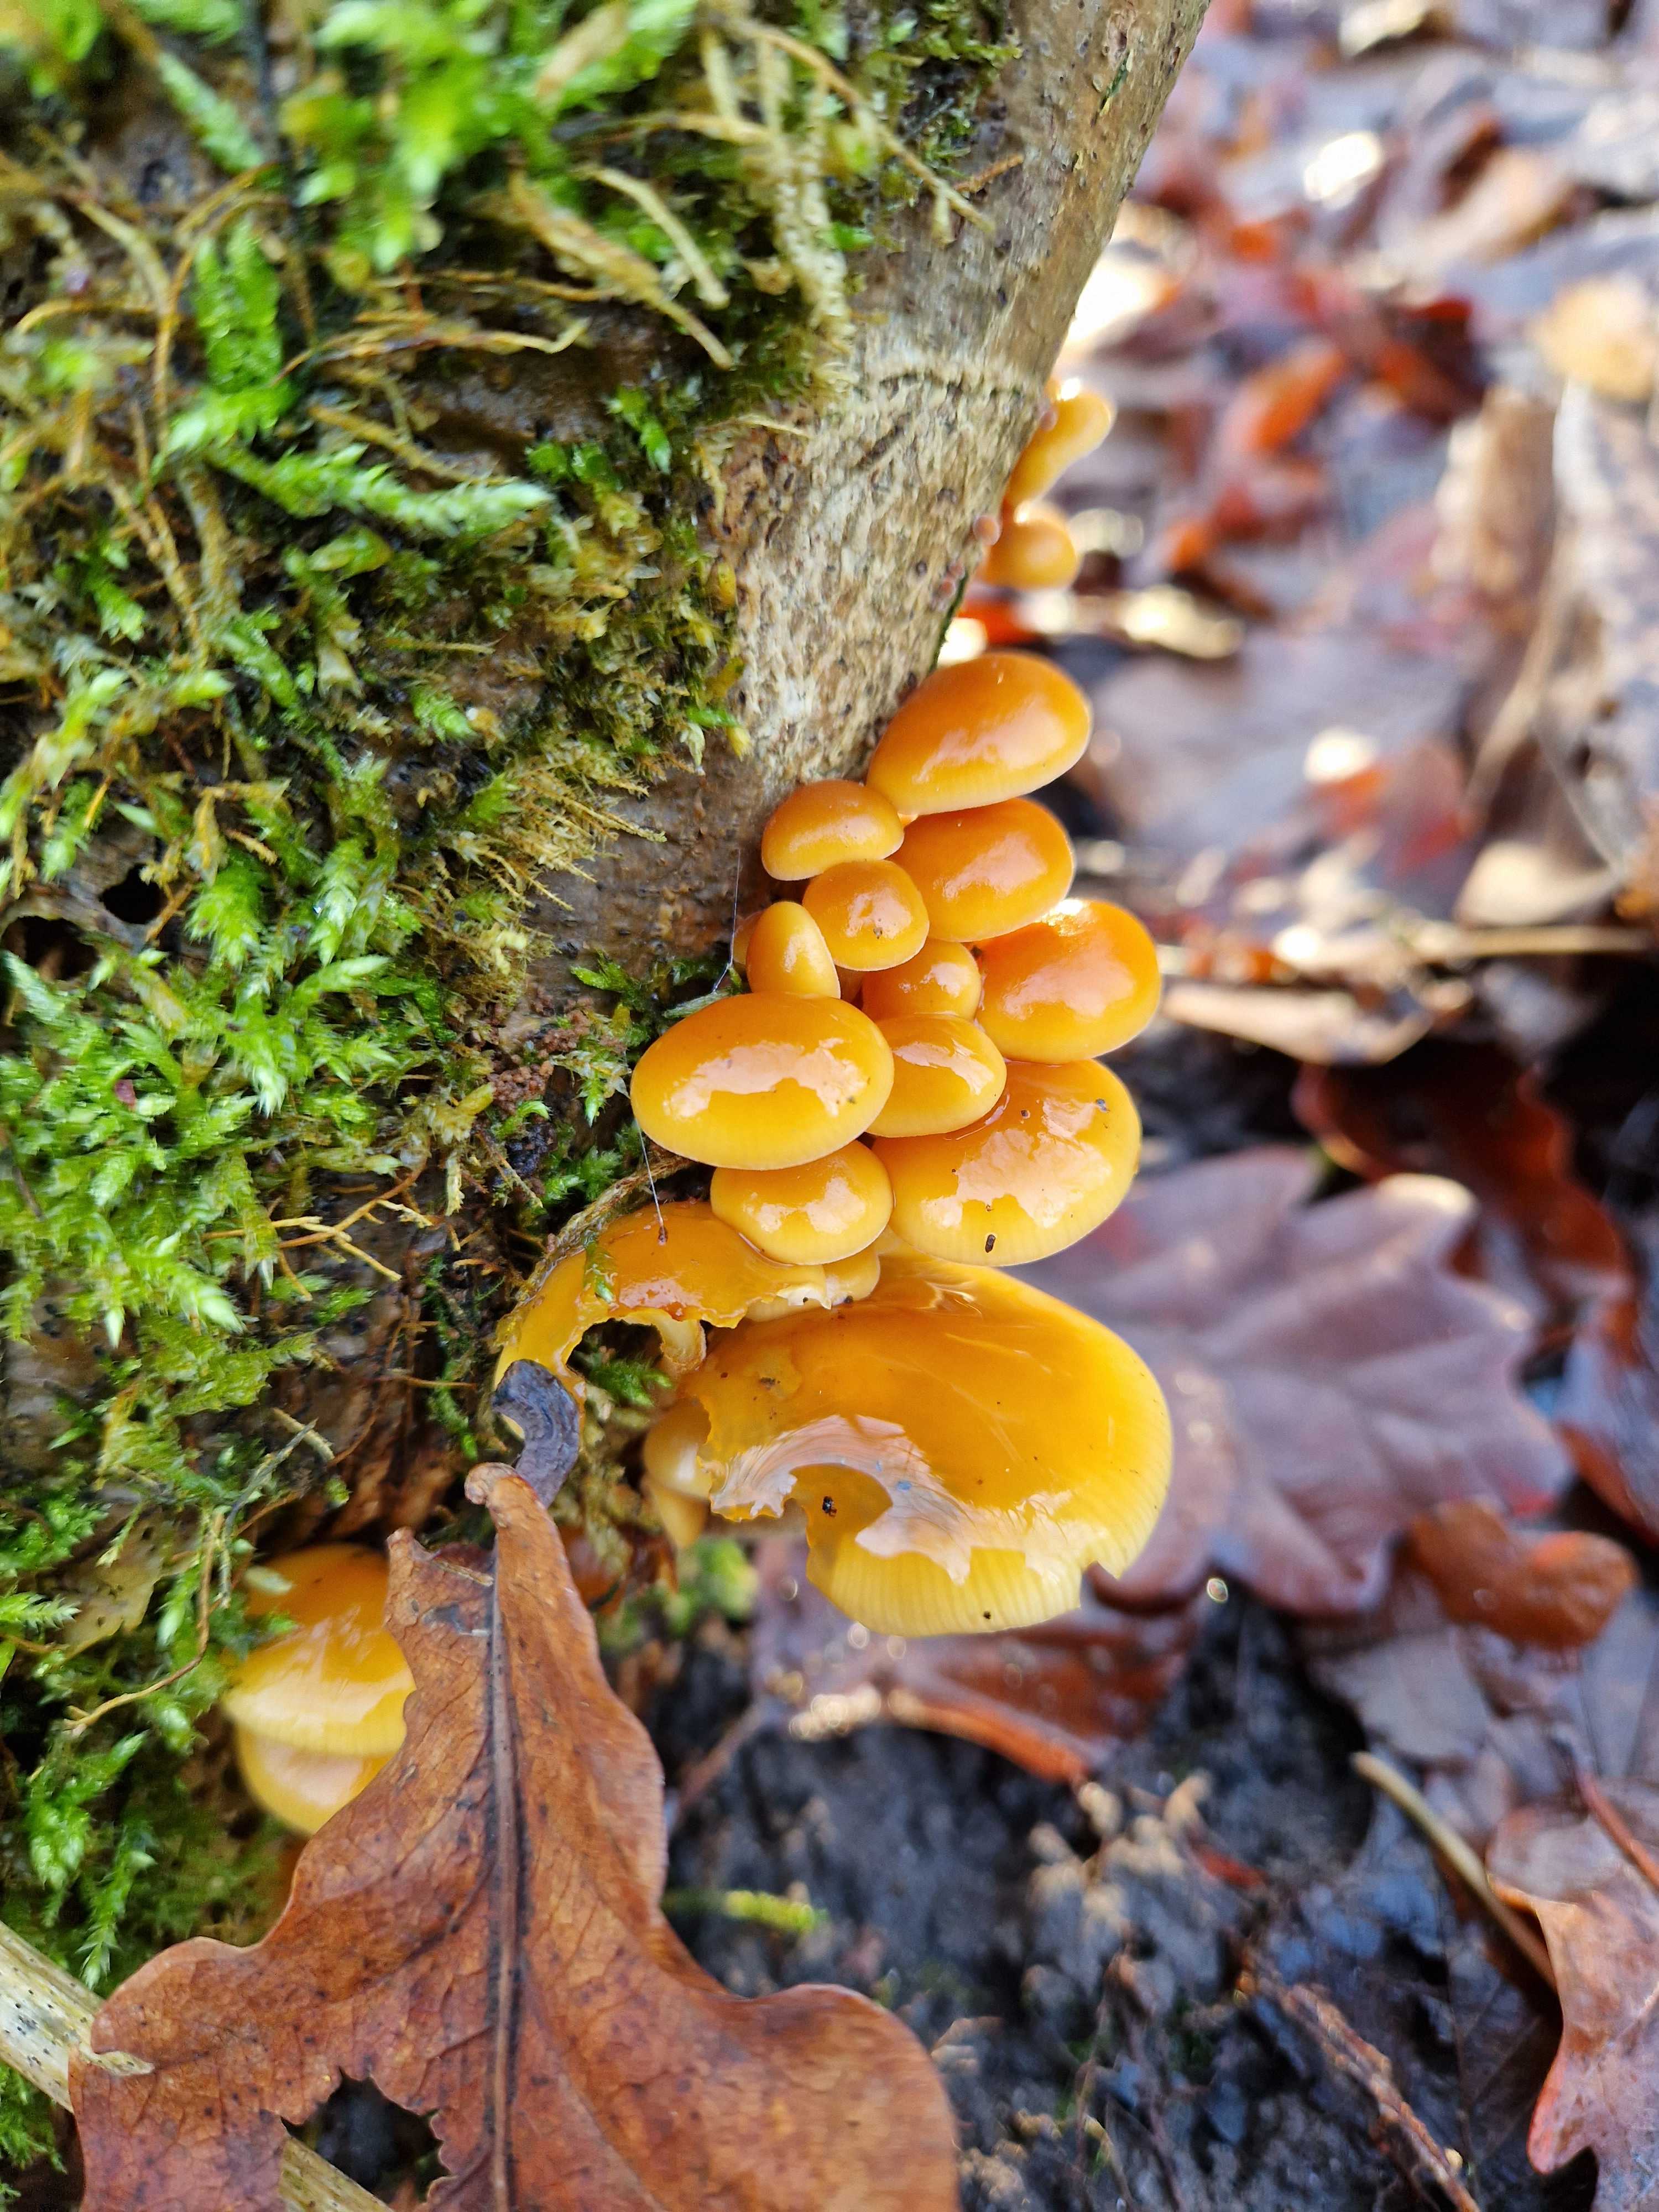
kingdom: Fungi
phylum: Basidiomycota
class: Agaricomycetes
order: Agaricales
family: Physalacriaceae
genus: Flammulina
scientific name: Flammulina velutipes
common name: gul fløjlsfod
